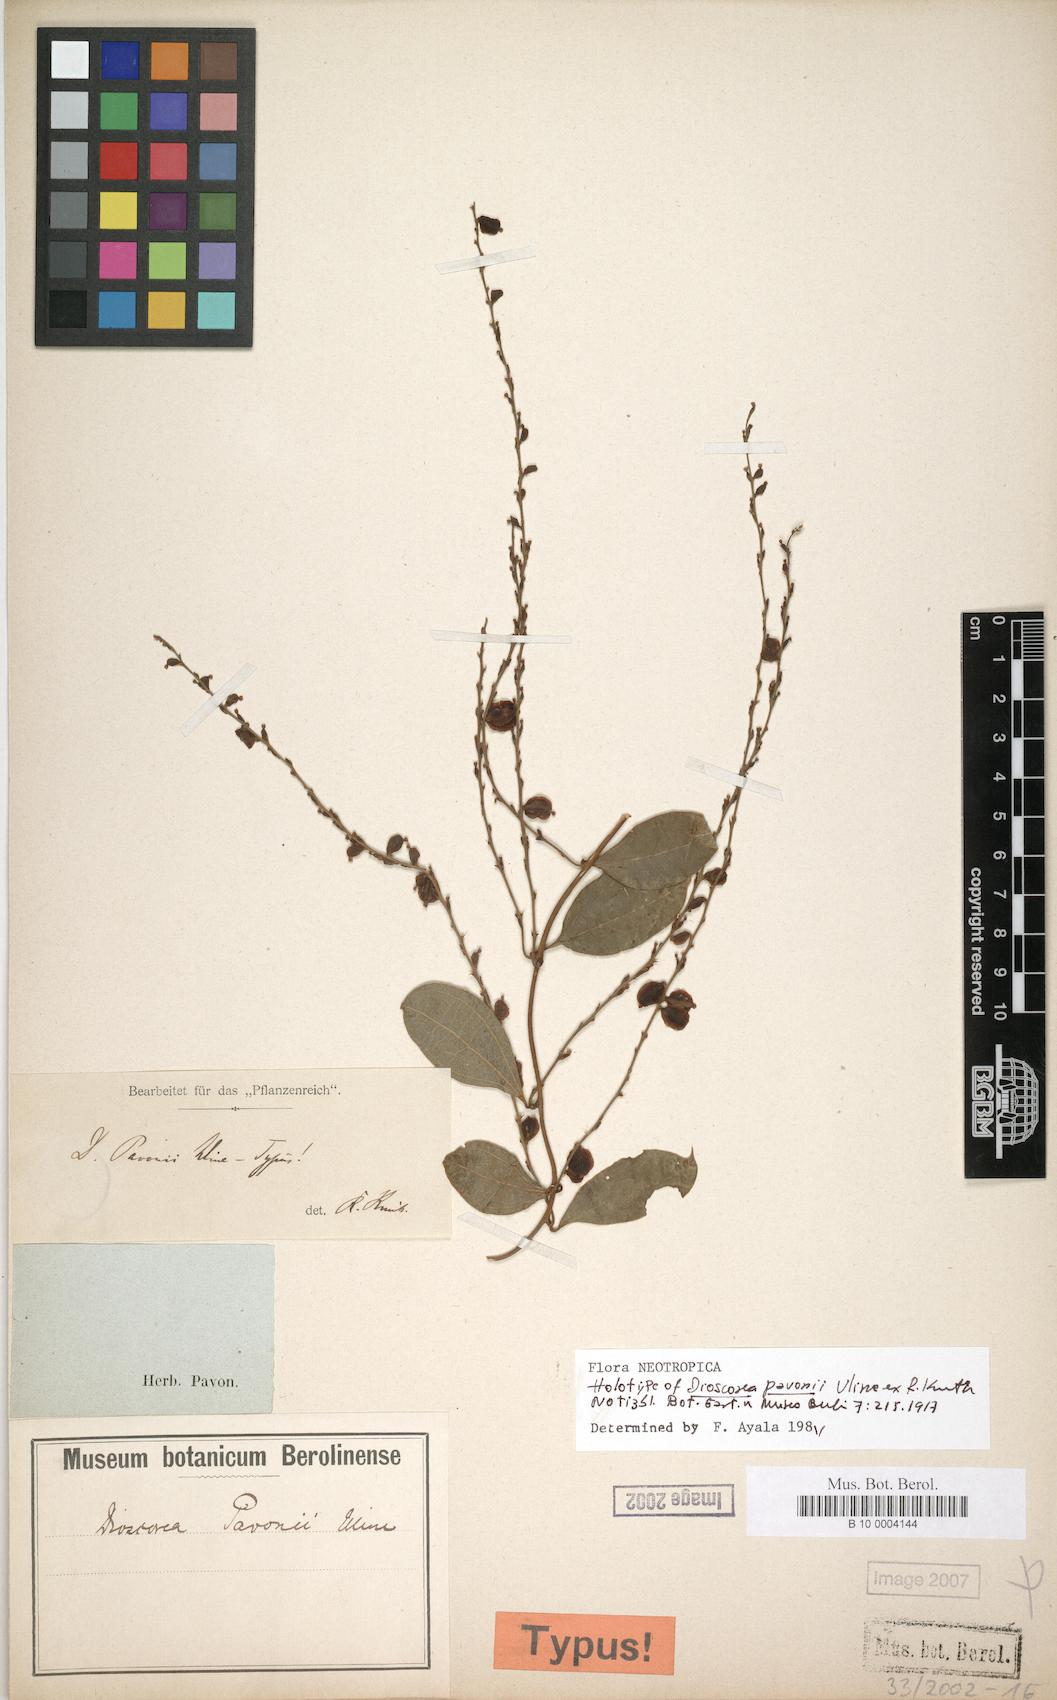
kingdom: Plantae
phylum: Tracheophyta
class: Liliopsida
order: Dioscoreales
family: Dioscoreaceae
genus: Dioscorea
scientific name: Dioscorea pavonii
